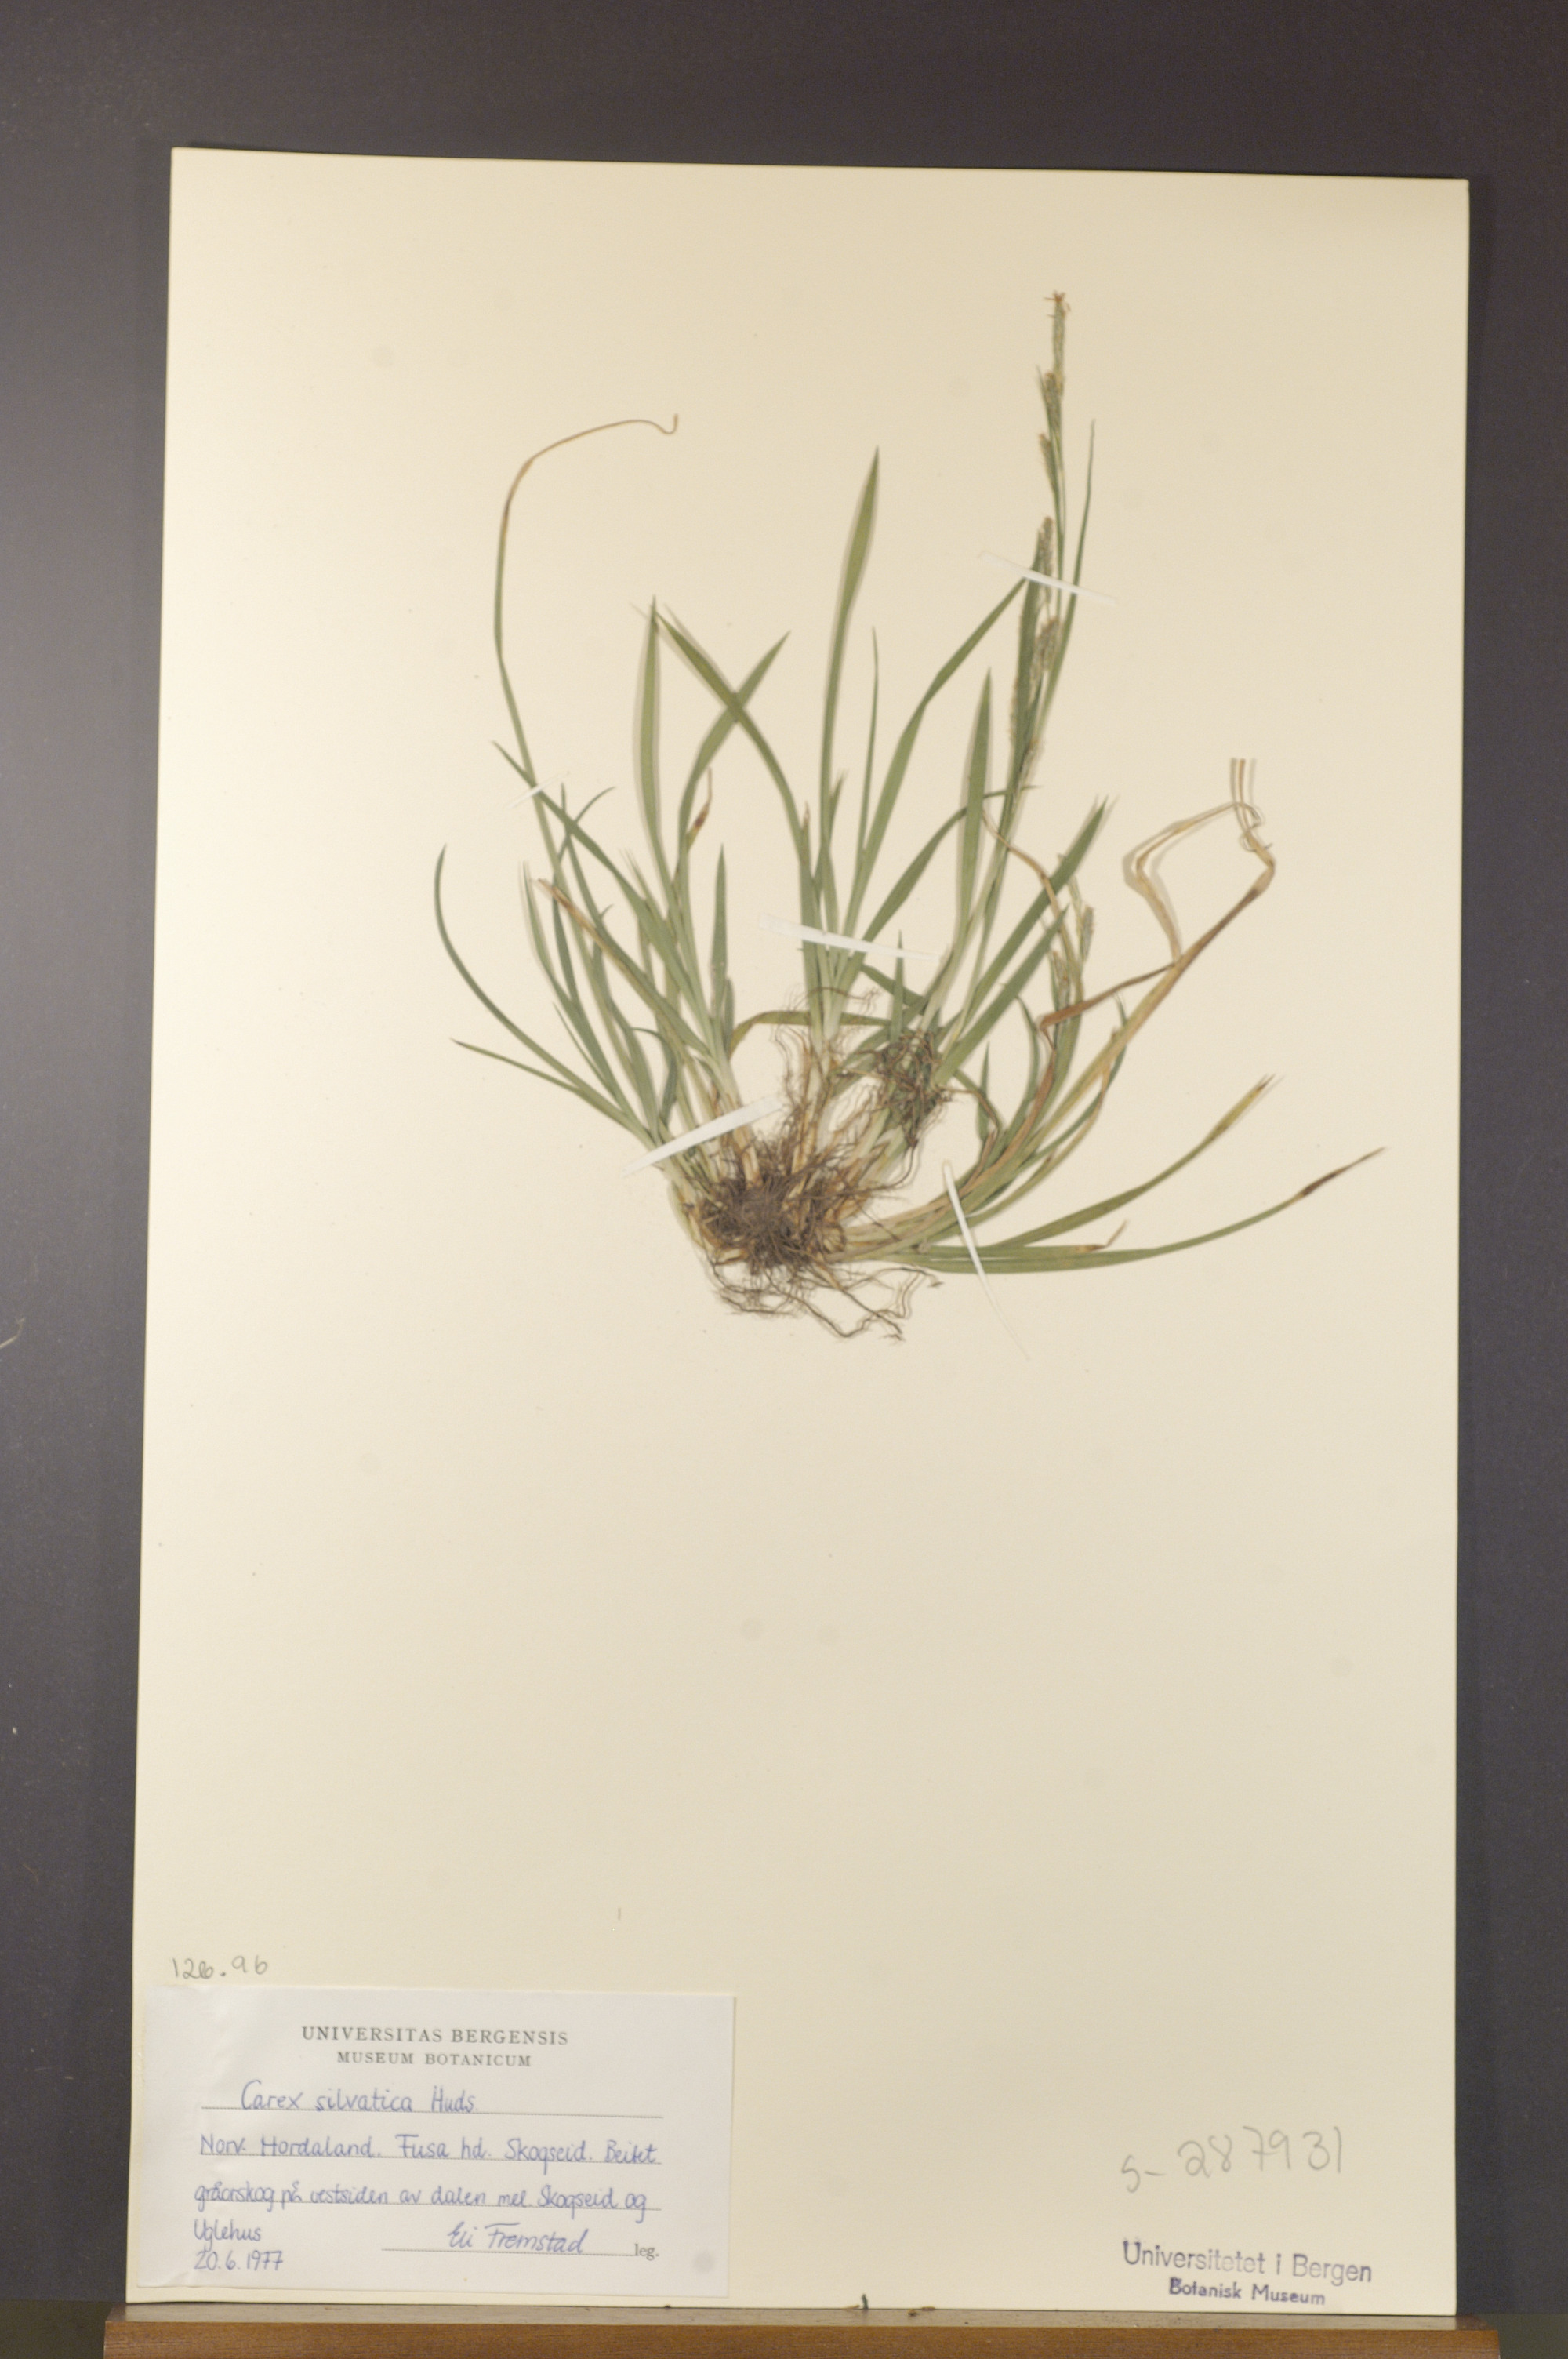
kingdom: Plantae
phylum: Tracheophyta
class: Liliopsida
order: Poales
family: Cyperaceae
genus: Carex
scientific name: Carex sylvatica
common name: Wood-sedge
